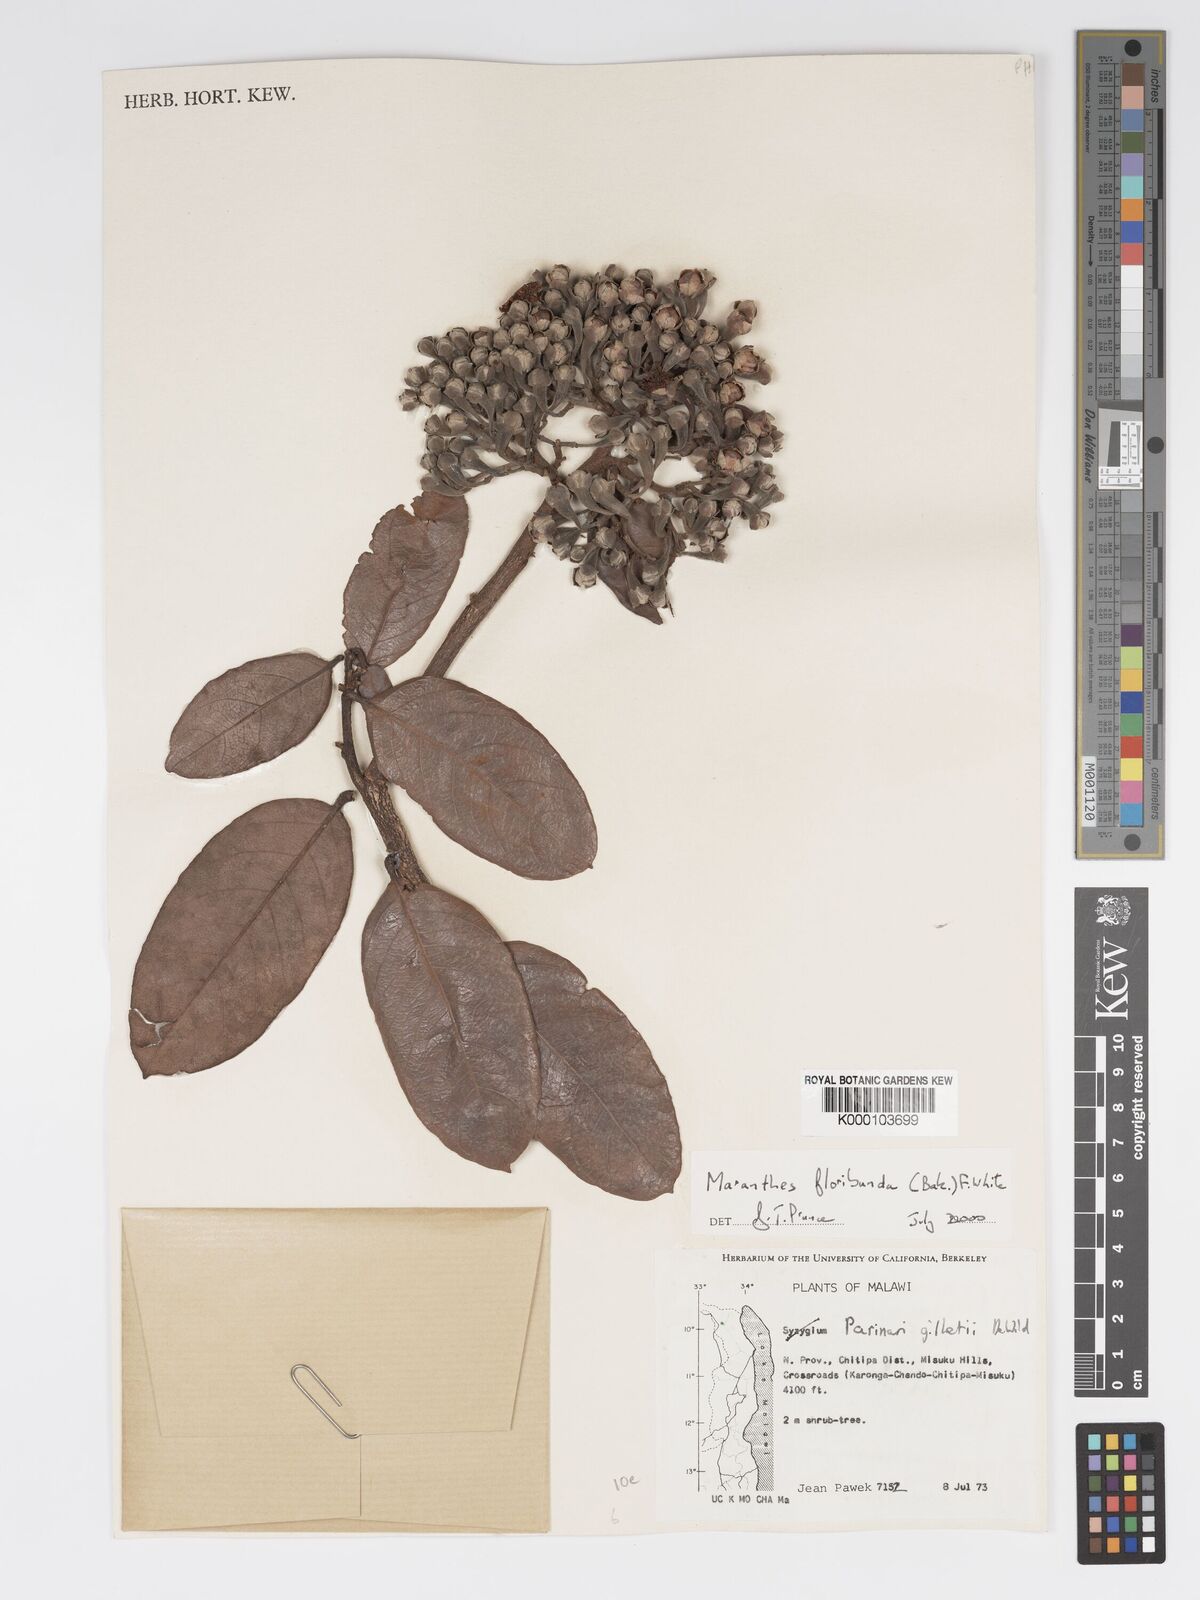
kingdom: Plantae
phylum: Tracheophyta
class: Magnoliopsida
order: Malpighiales
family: Chrysobalanaceae
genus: Maranthes
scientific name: Maranthes floribunda
